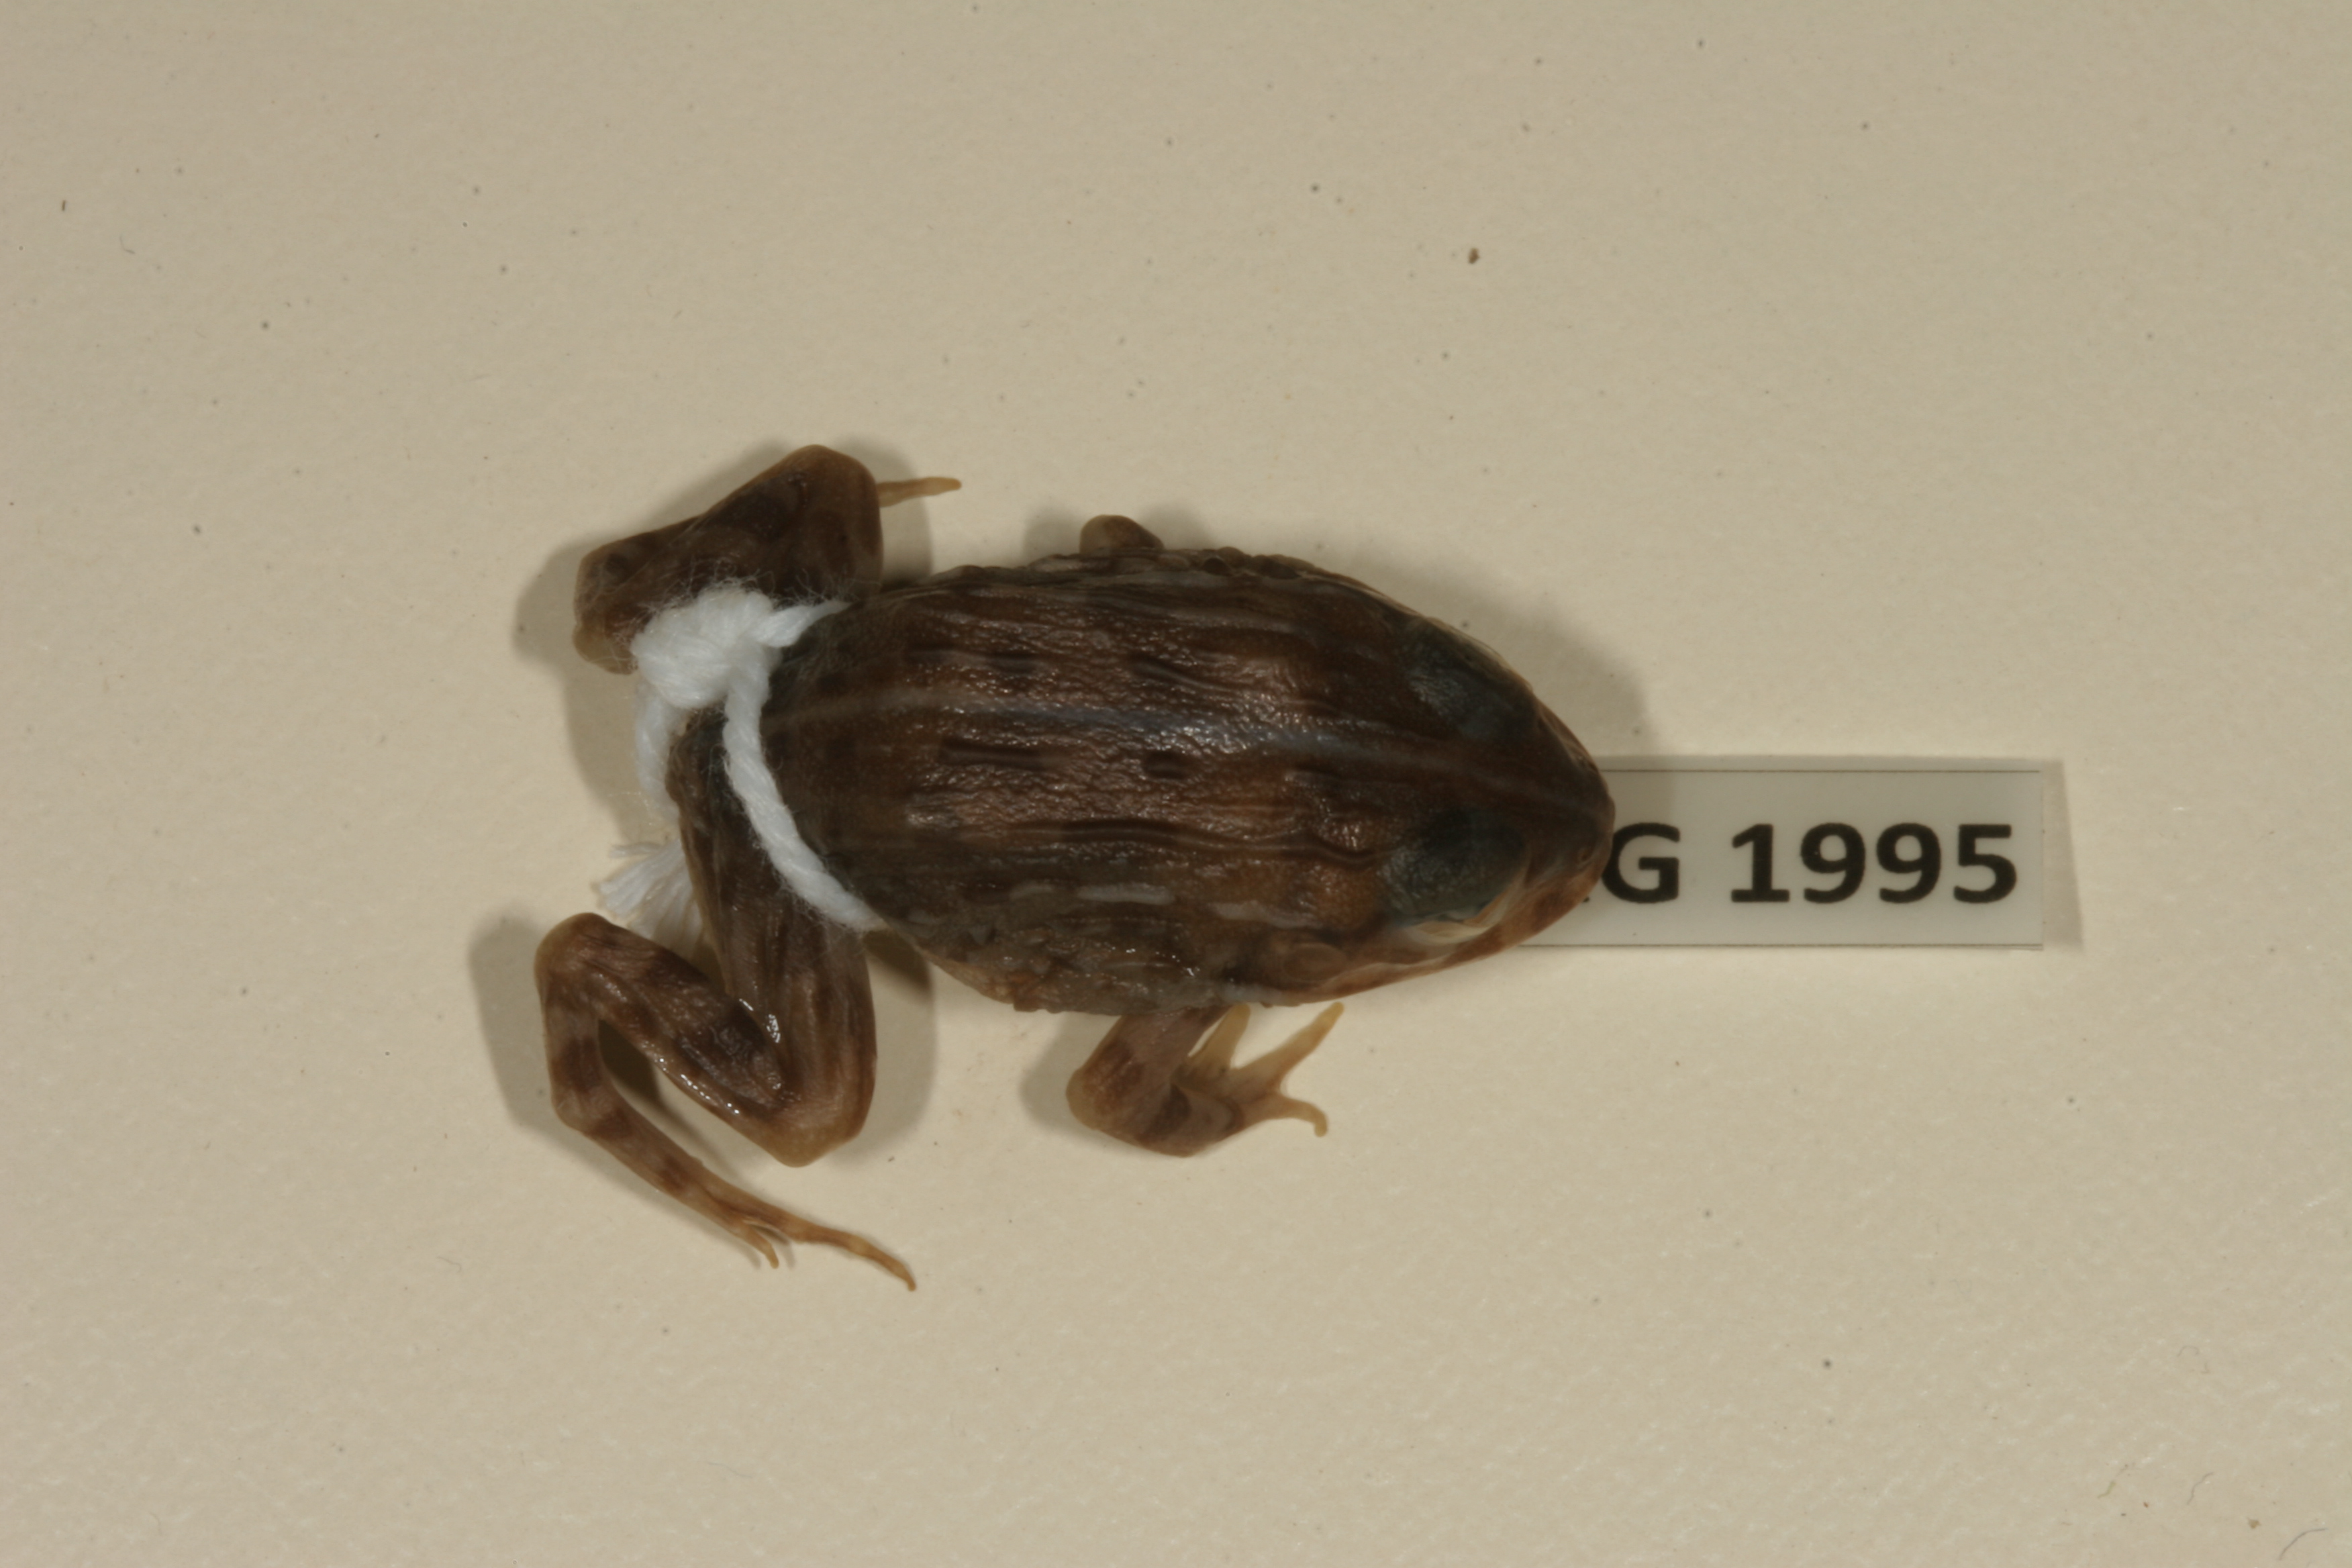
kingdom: Animalia
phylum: Chordata
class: Amphibia
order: Anura
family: Pyxicephalidae
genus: Pyxicephalus
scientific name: Pyxicephalus edulis
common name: Peter's bullfrog
